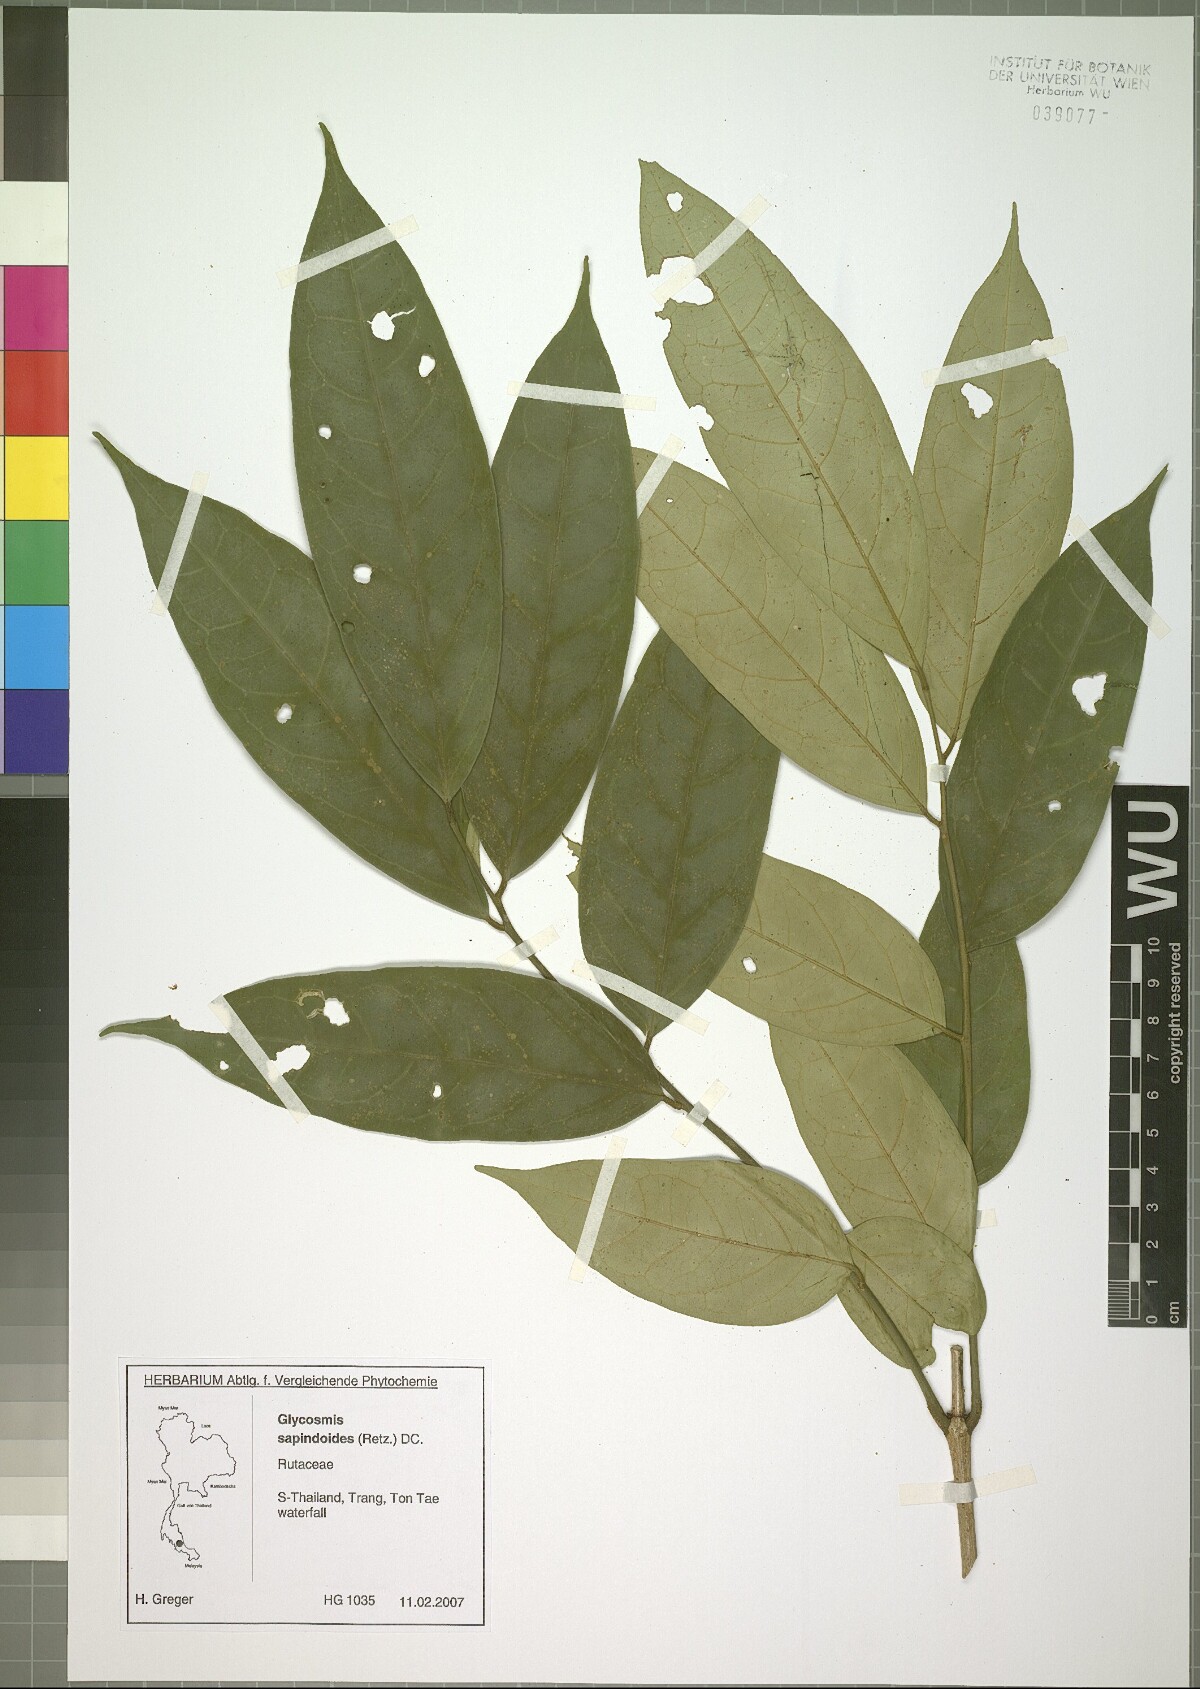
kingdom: Plantae
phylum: Tracheophyta
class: Magnoliopsida
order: Sapindales
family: Rutaceae
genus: Glycosmis
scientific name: Glycosmis macrophylla
